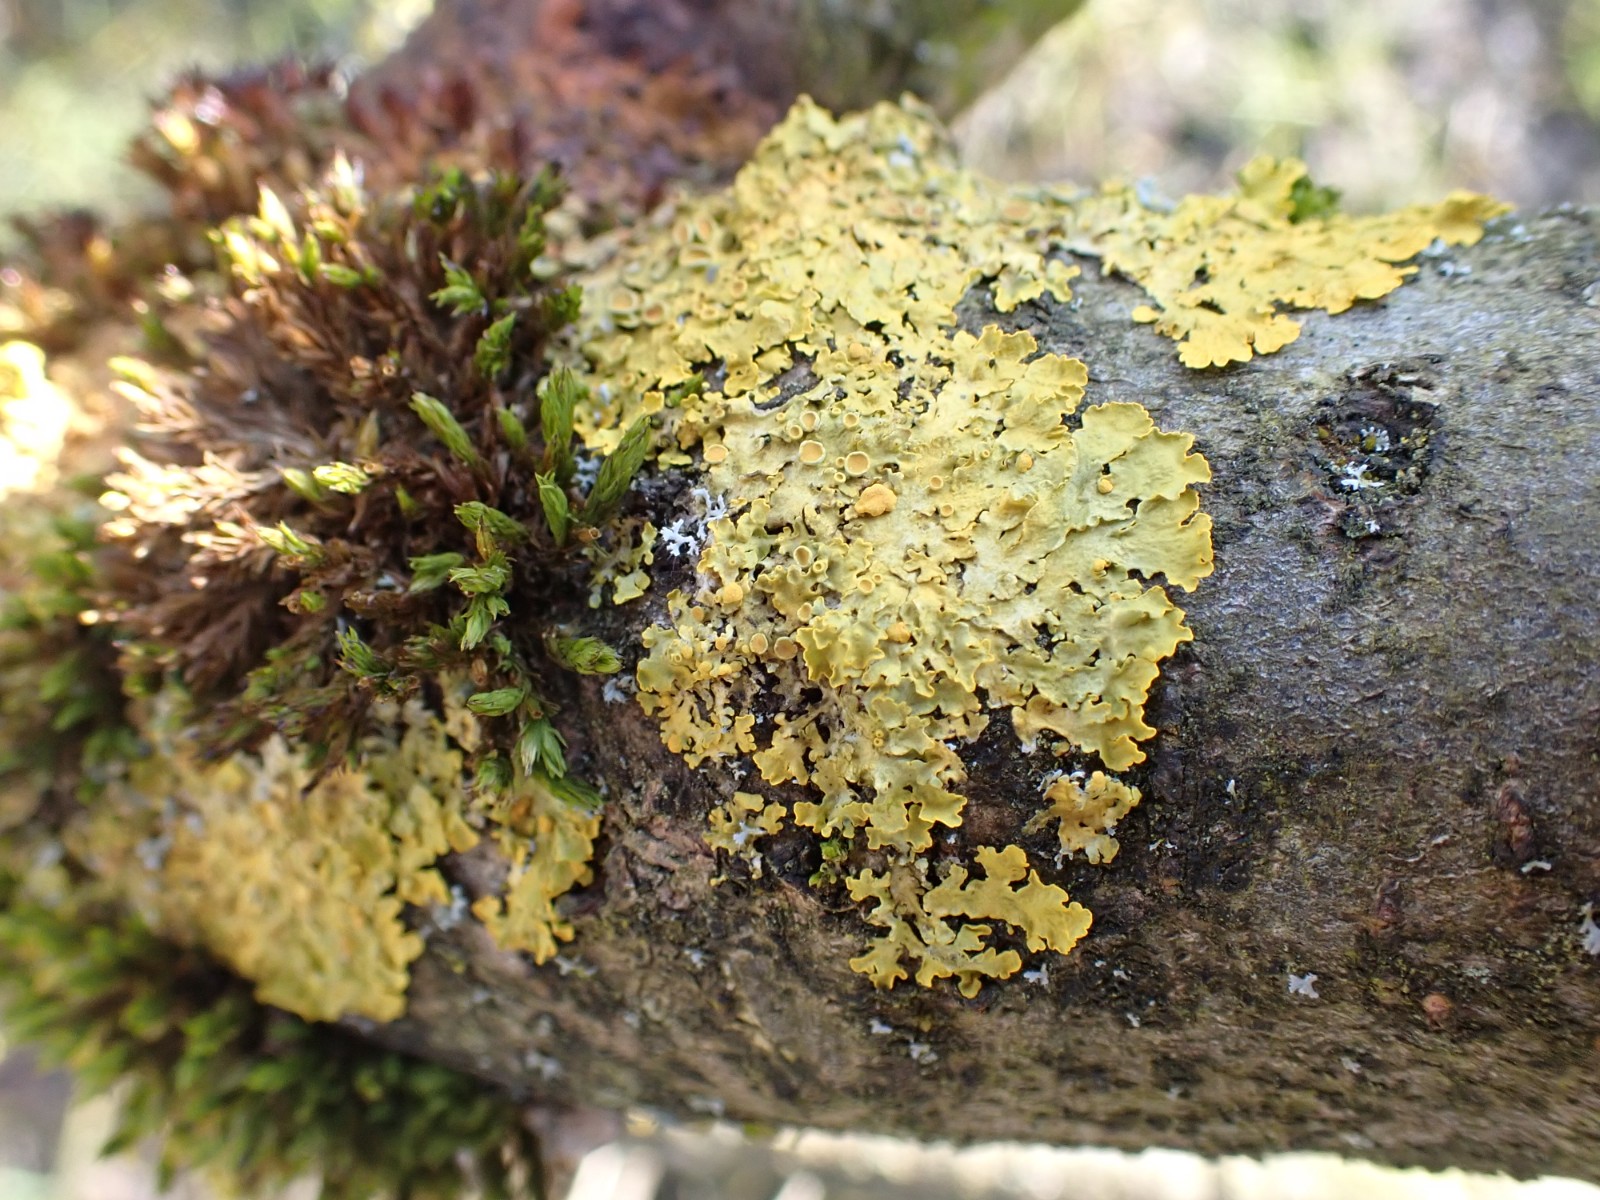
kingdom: Fungi
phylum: Ascomycota
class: Lecanoromycetes
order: Teloschistales
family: Teloschistaceae
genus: Xanthoria
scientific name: Xanthoria parietina
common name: almindelig væggelav
